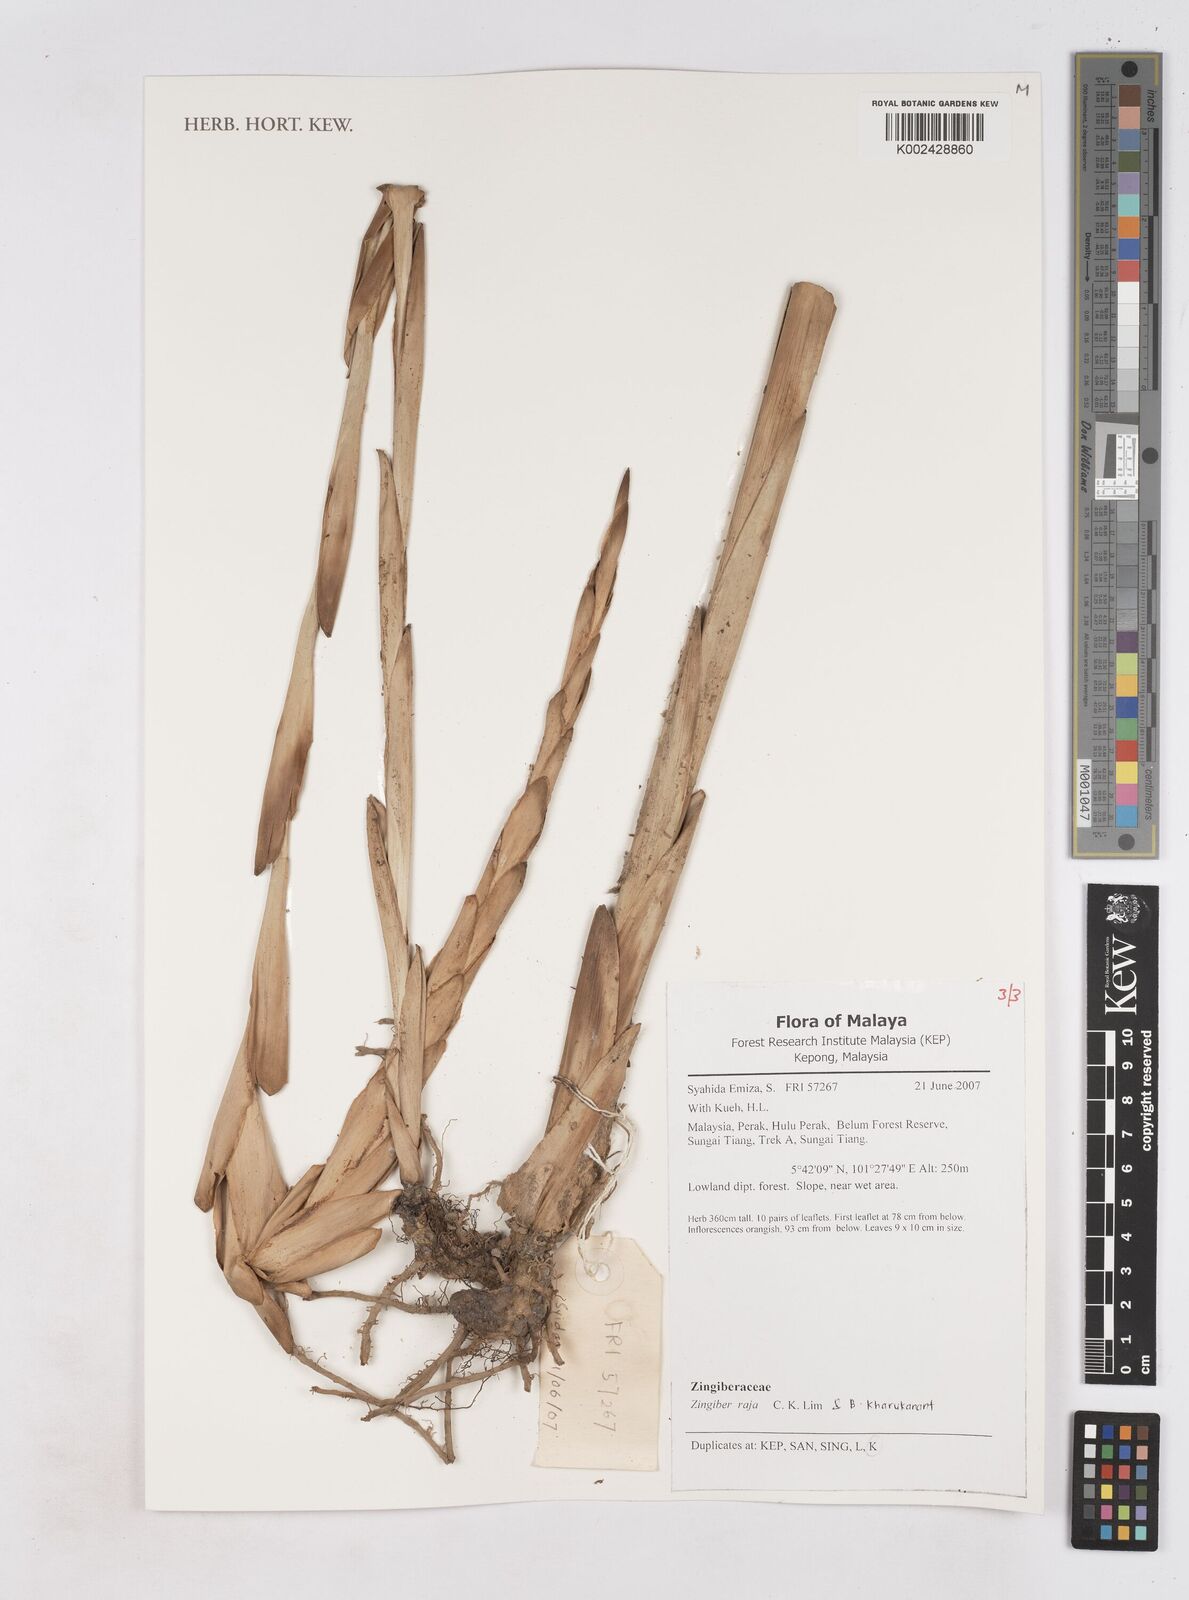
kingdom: Plantae
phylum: Tracheophyta
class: Liliopsida
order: Zingiberales
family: Zingiberaceae
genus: Zingiber
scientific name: Zingiber raja
